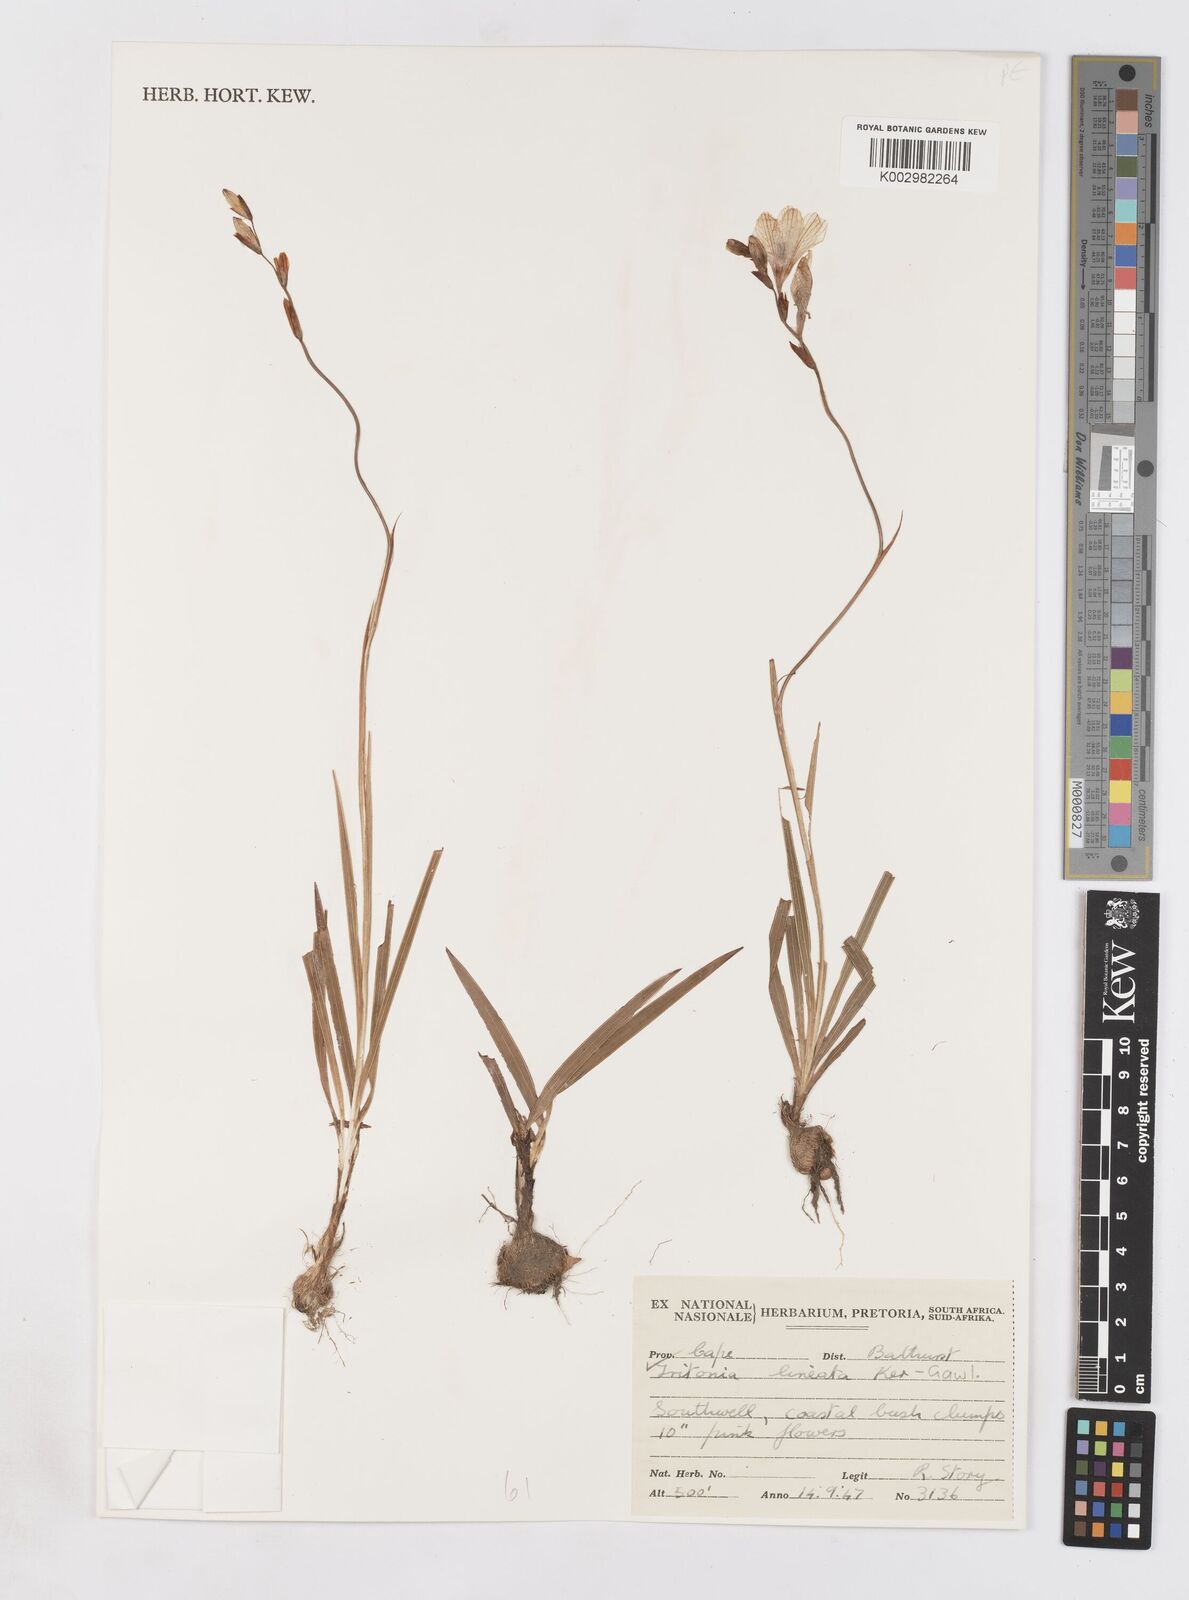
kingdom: Plantae
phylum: Tracheophyta
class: Liliopsida
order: Asparagales
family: Iridaceae
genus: Tritonia
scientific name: Tritonia gladiolaris
